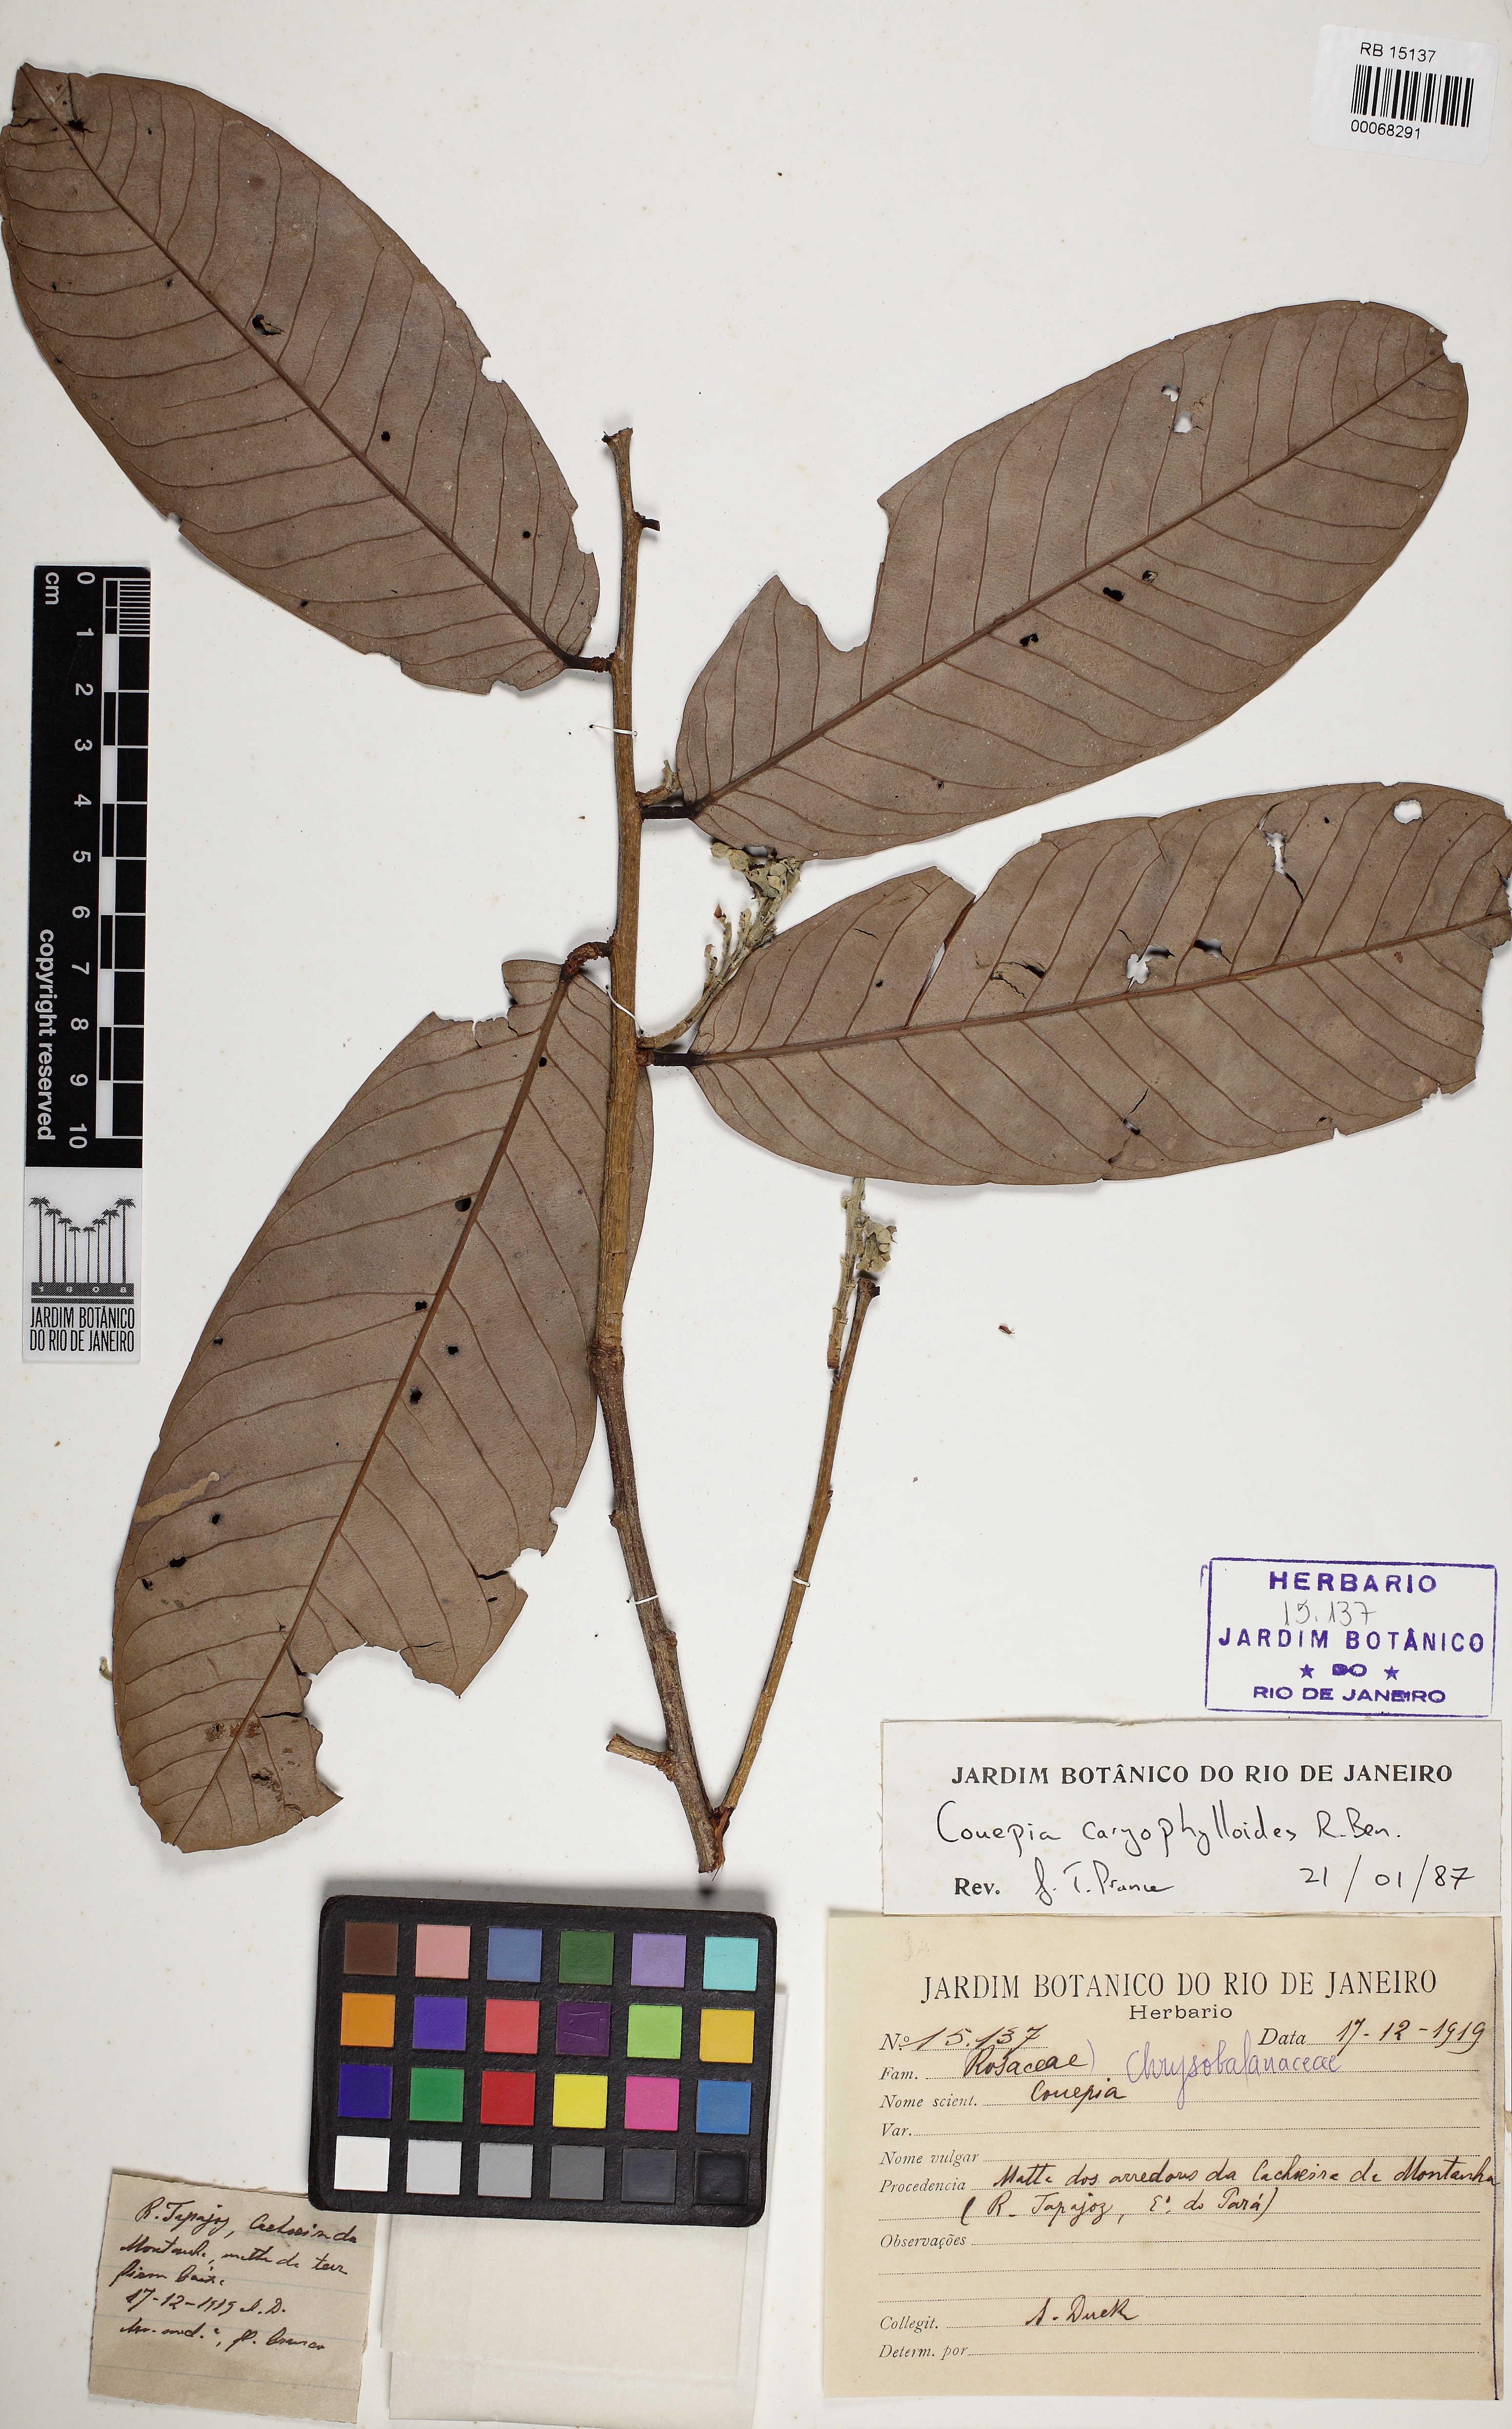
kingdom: Plantae
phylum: Tracheophyta
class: Magnoliopsida
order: Malpighiales
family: Chrysobalanaceae
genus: Couepia
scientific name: Couepia caryophylloides
